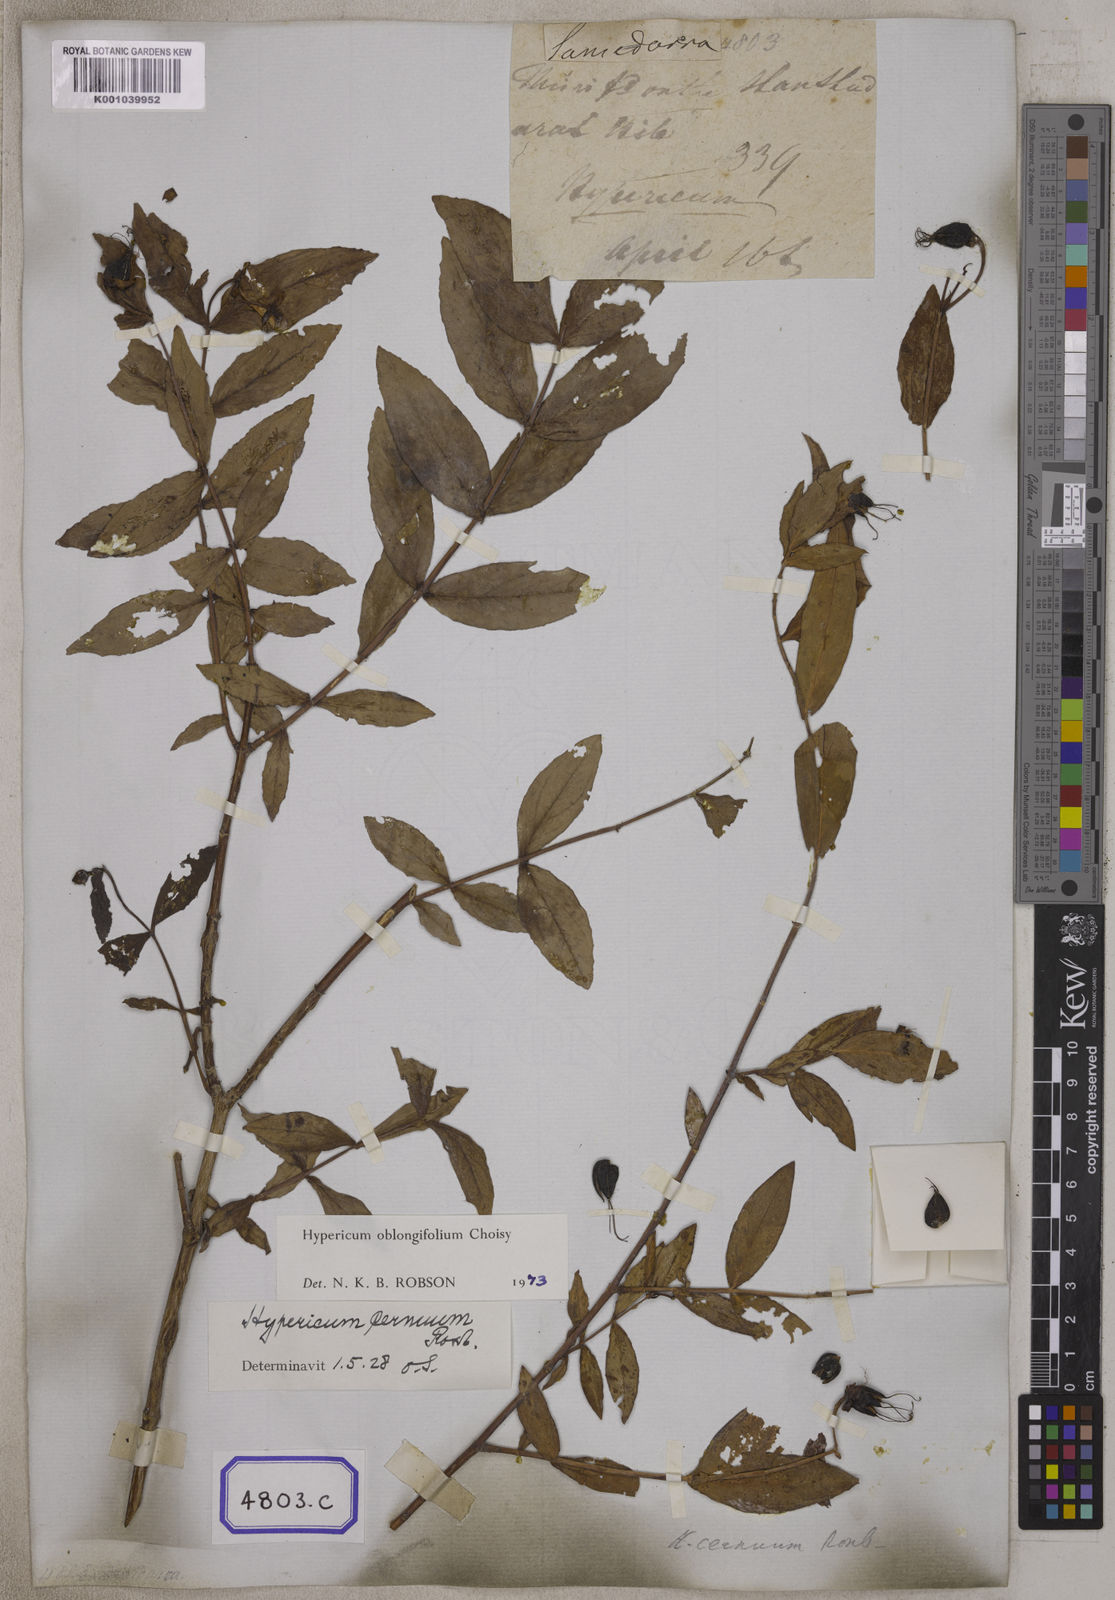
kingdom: Plantae
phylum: Tracheophyta
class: Magnoliopsida
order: Malpighiales
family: Hypericaceae
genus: Hypericum
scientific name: Hypericum oblongifolium
